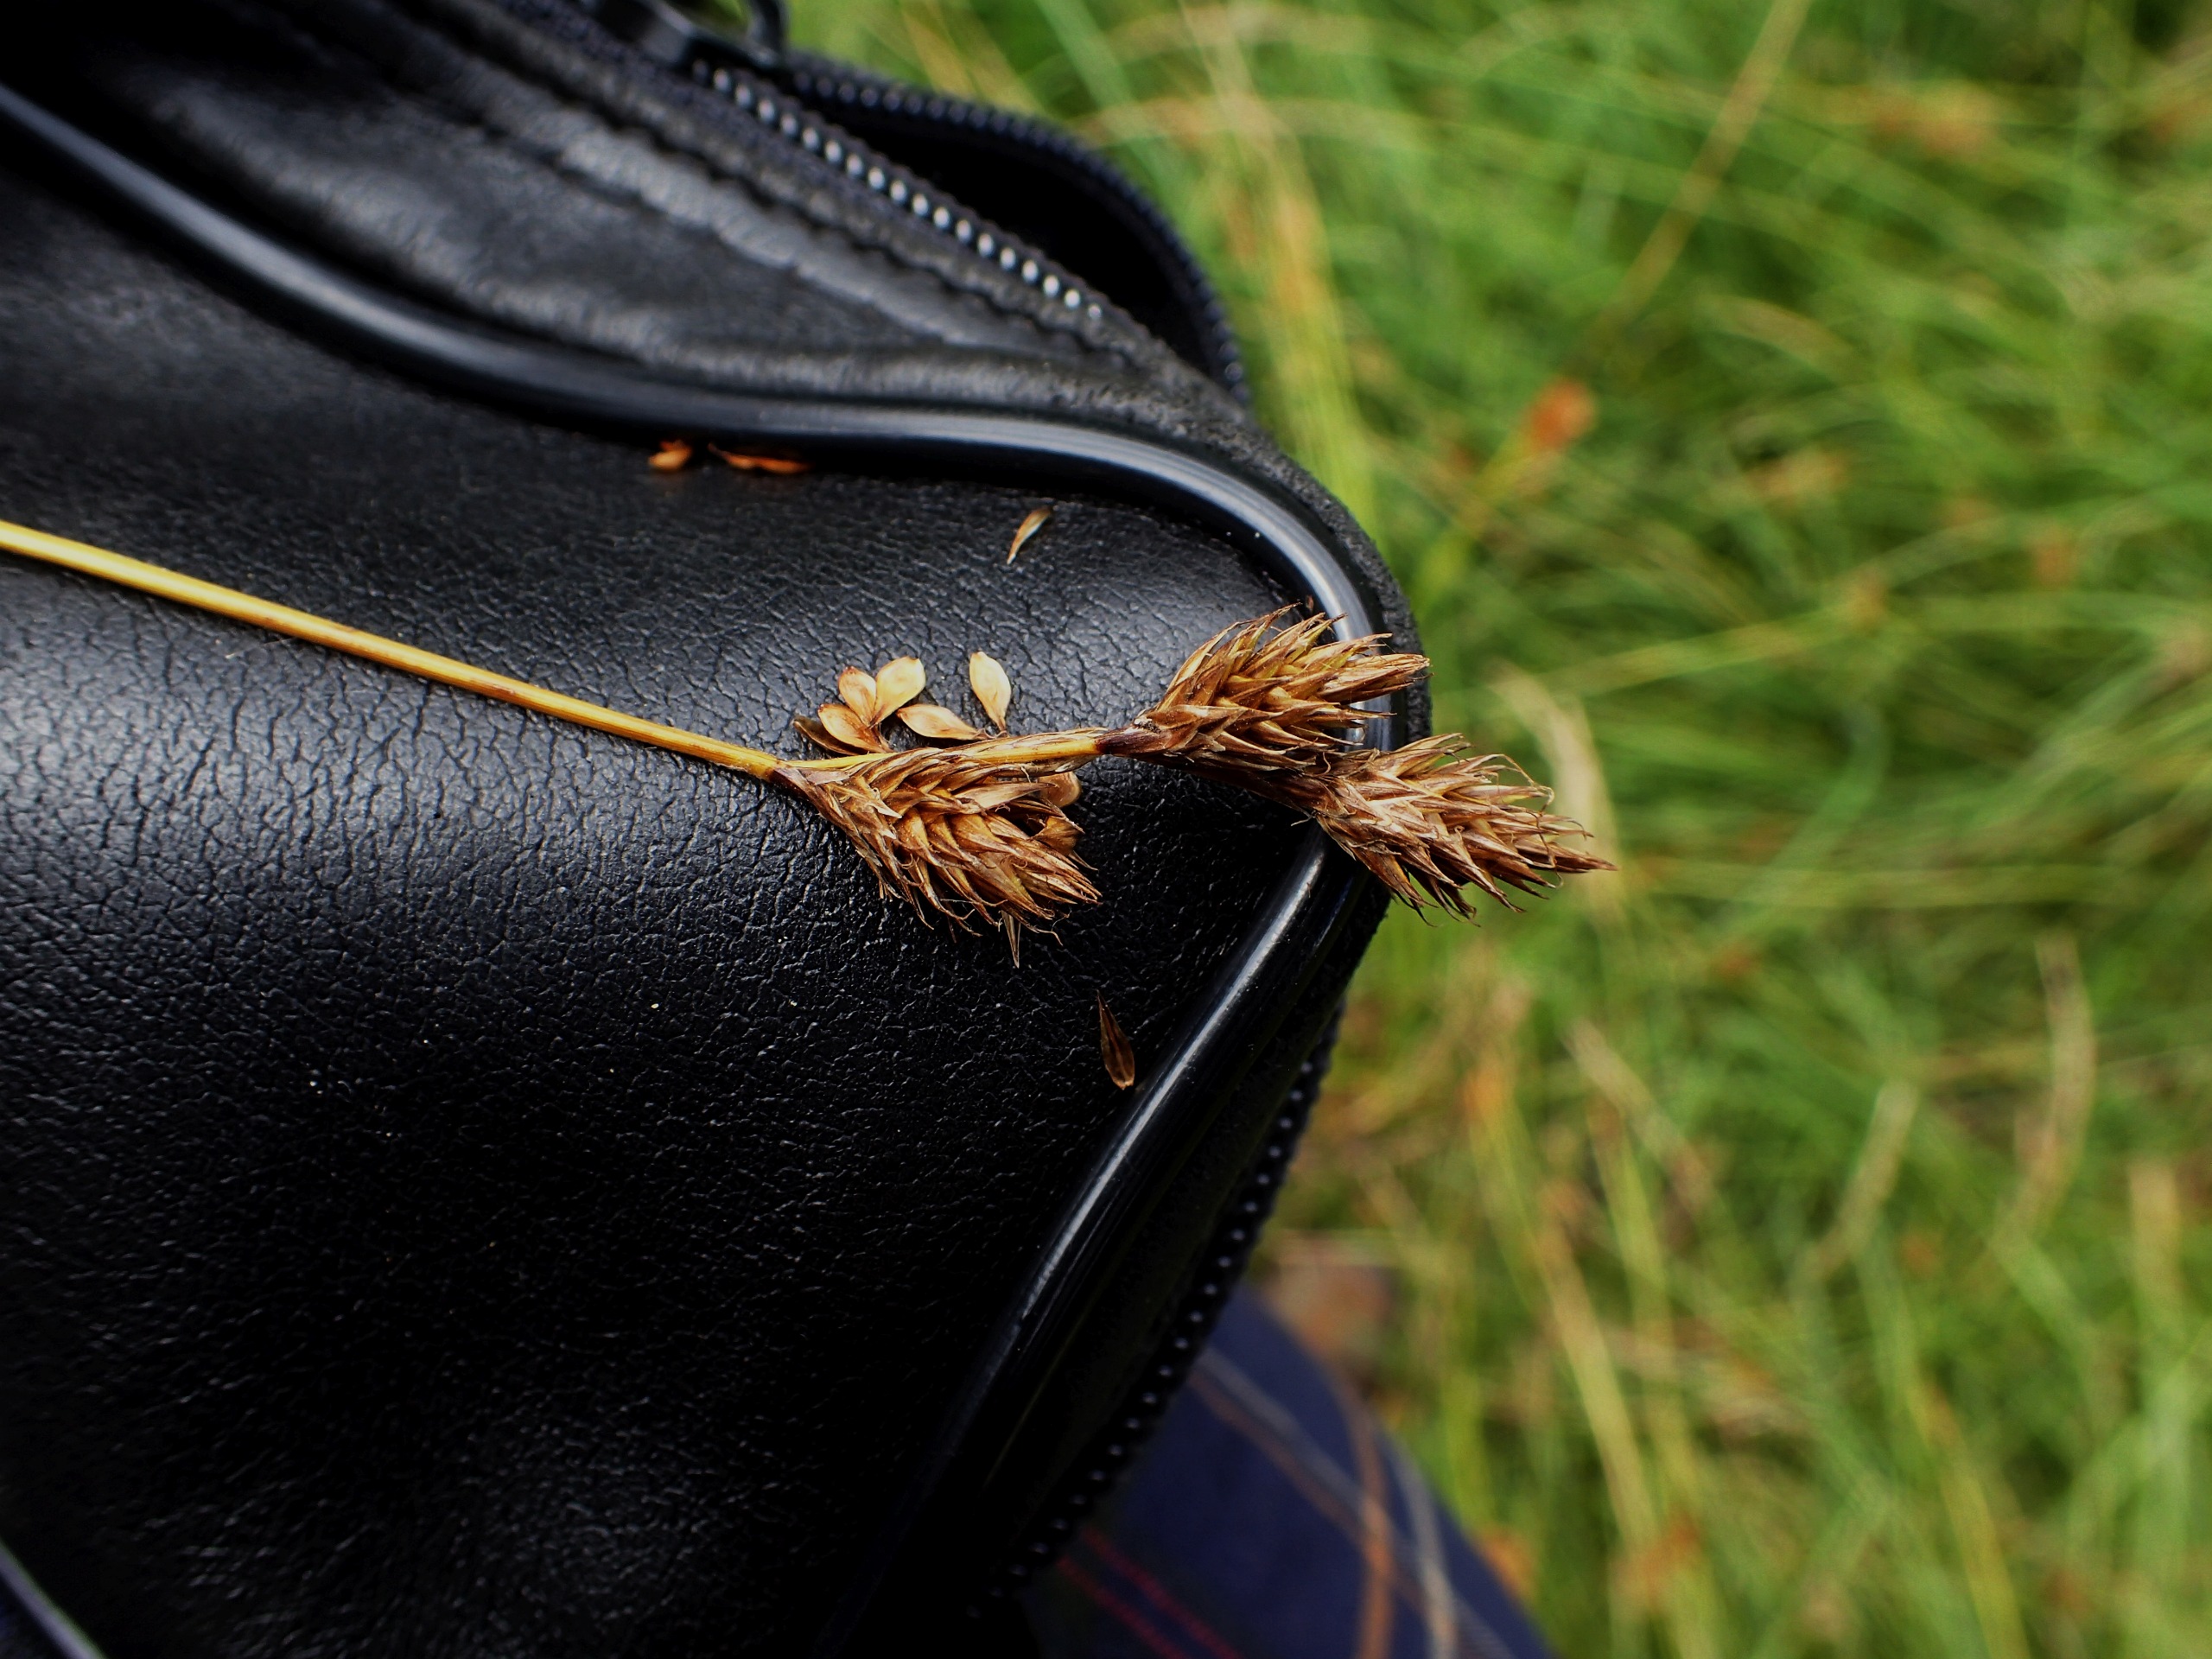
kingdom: Plantae
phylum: Tracheophyta
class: Liliopsida
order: Poales
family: Cyperaceae
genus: Carex
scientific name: Carex leporina
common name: Hare-star
